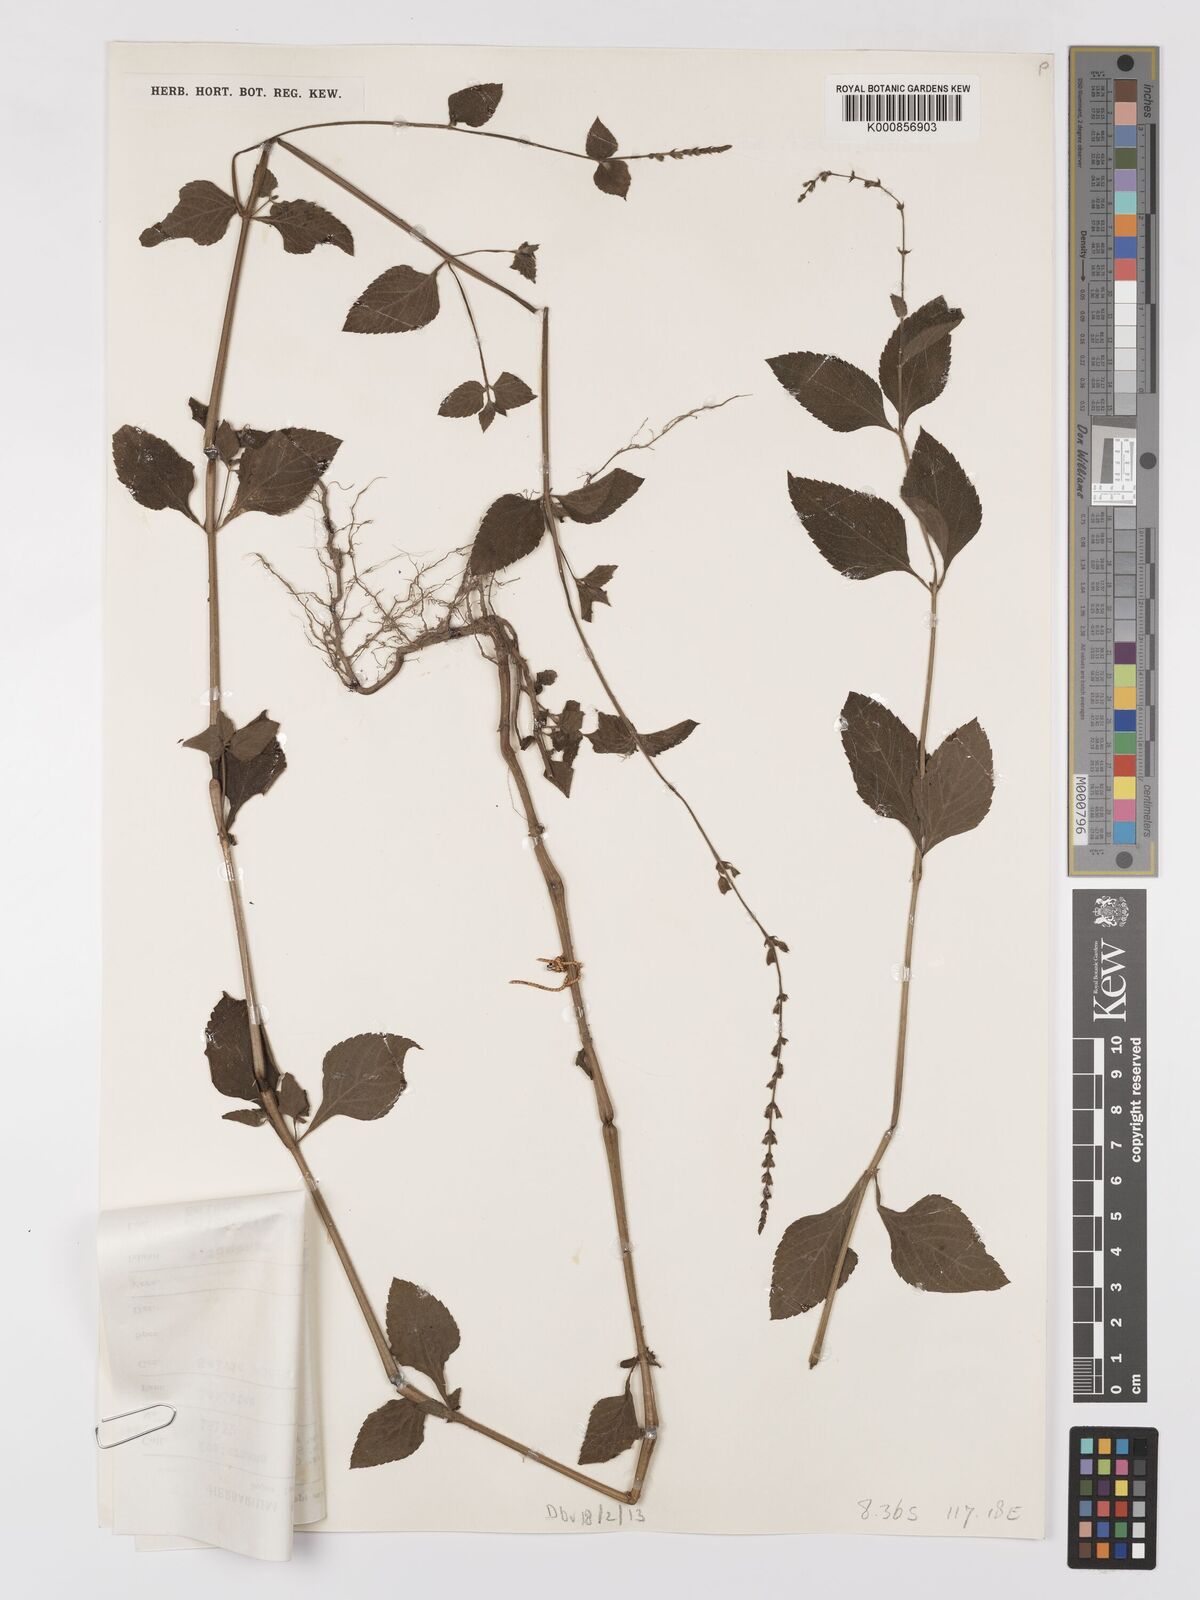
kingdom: Plantae
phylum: Tracheophyta
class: Magnoliopsida
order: Lamiales
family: Lamiaceae
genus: Salvia
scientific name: Salvia misella
